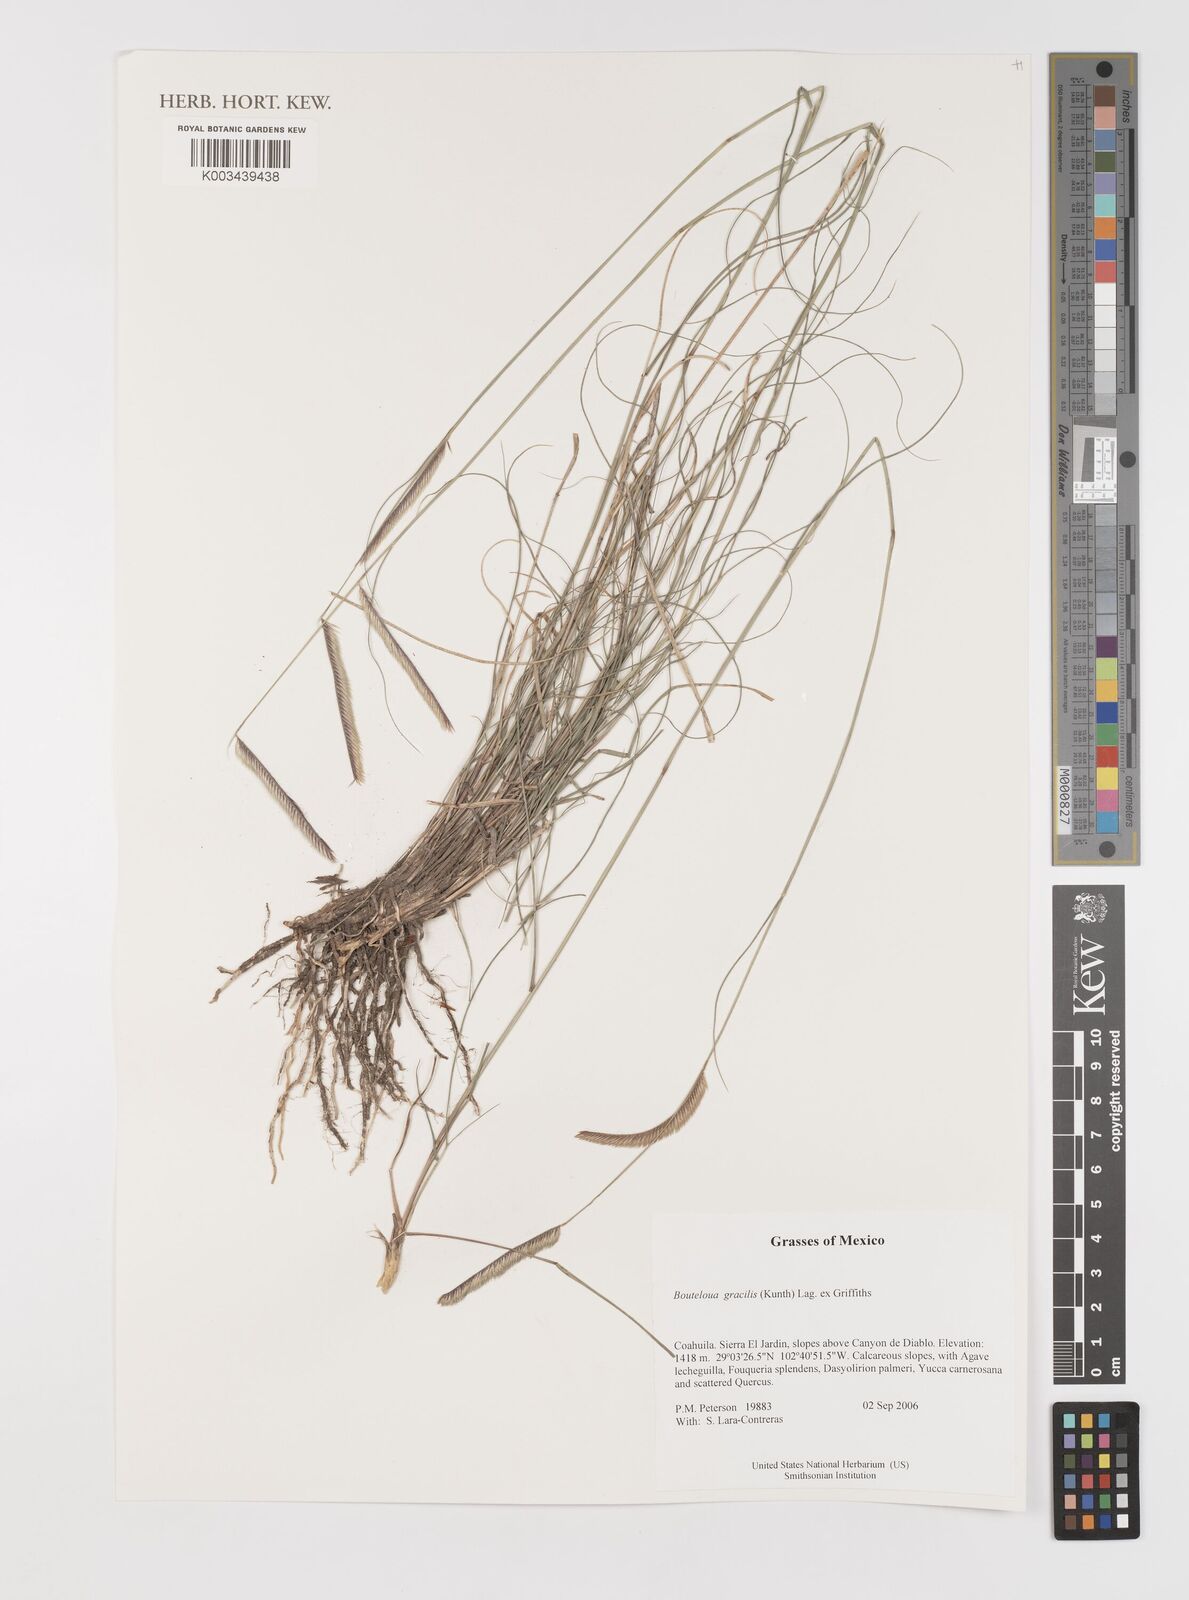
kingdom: Plantae
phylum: Tracheophyta
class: Liliopsida
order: Poales
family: Poaceae
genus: Bouteloua
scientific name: Bouteloua aristidoides
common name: Needle grama
